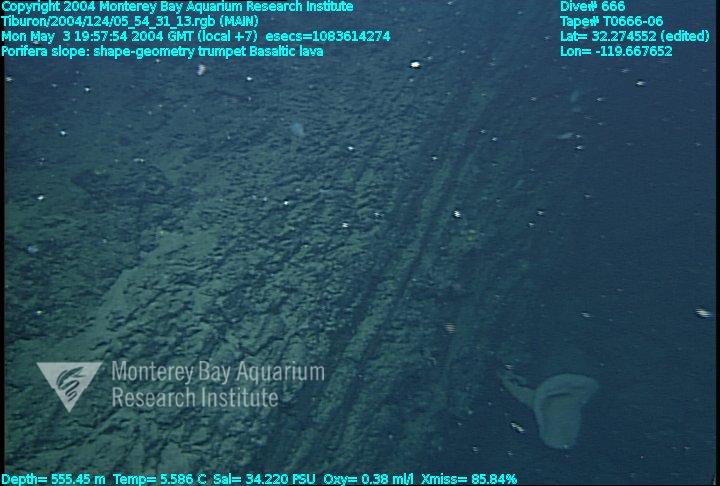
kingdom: Animalia
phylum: Porifera
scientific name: Porifera
